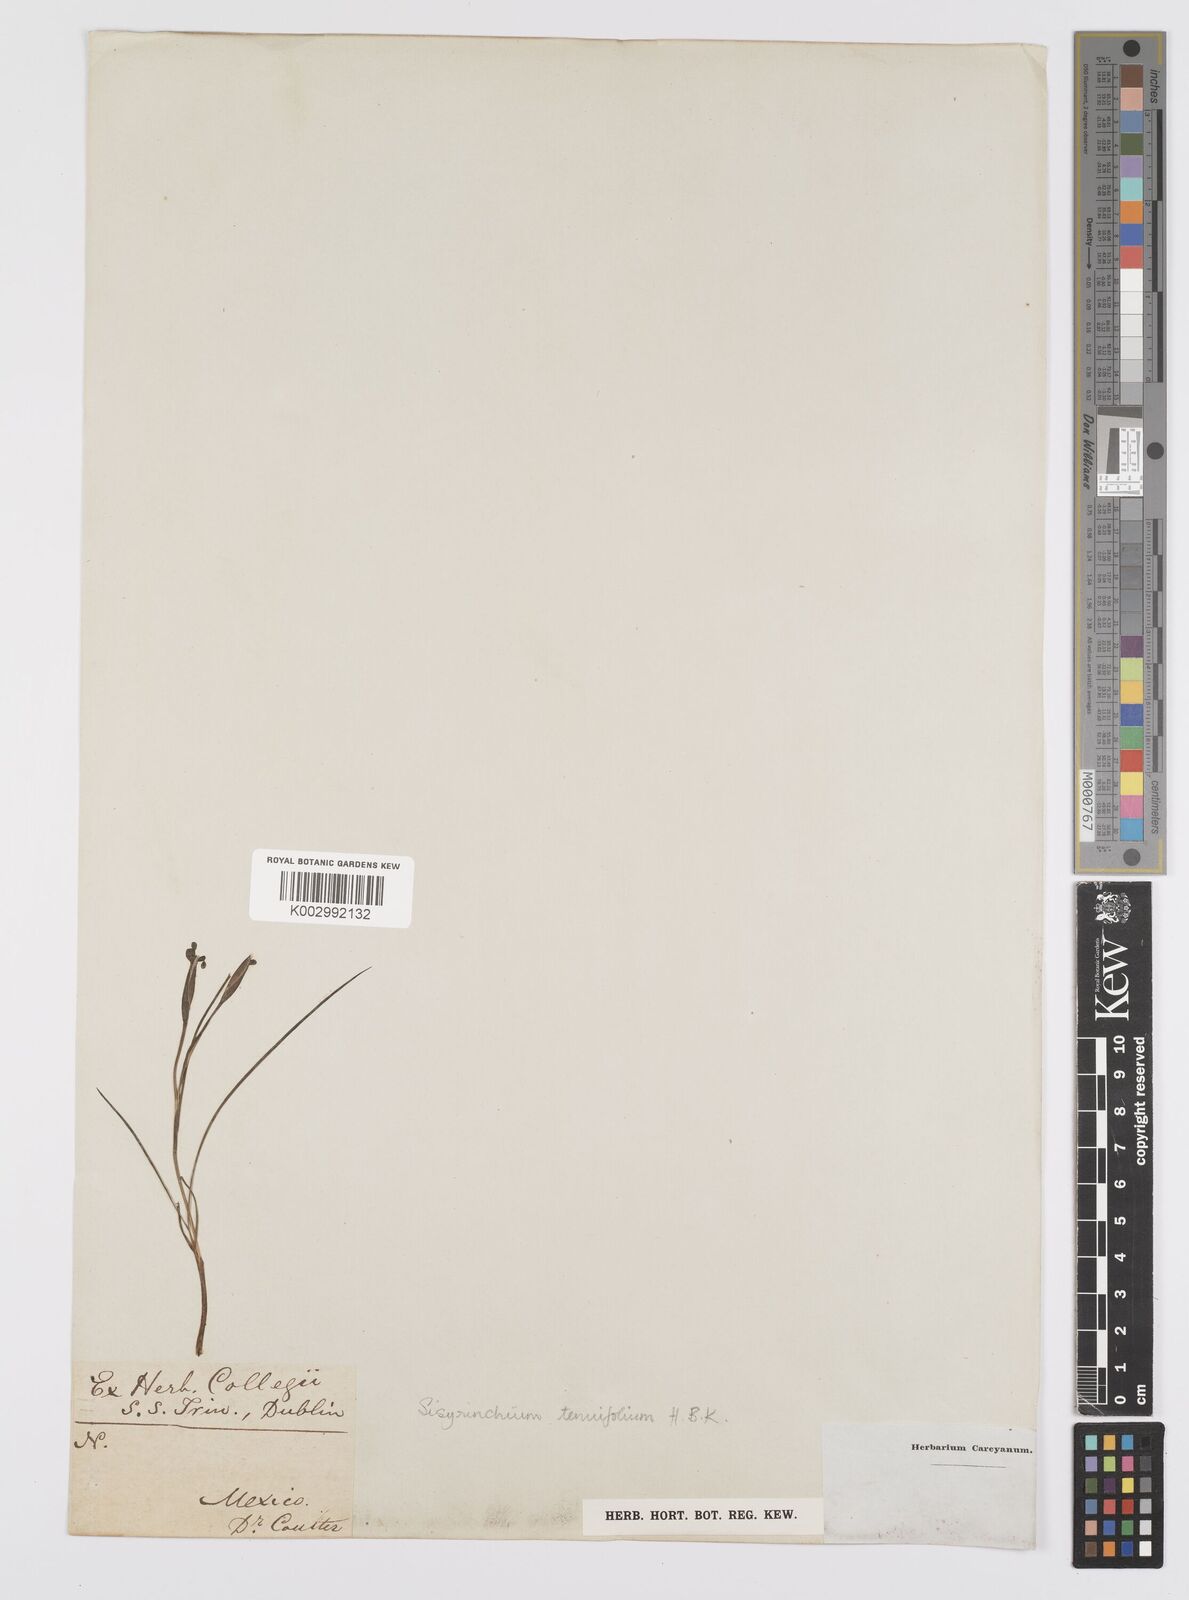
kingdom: Plantae
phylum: Tracheophyta
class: Liliopsida
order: Asparagales
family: Iridaceae
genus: Sisyrinchium
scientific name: Sisyrinchium langloisii
